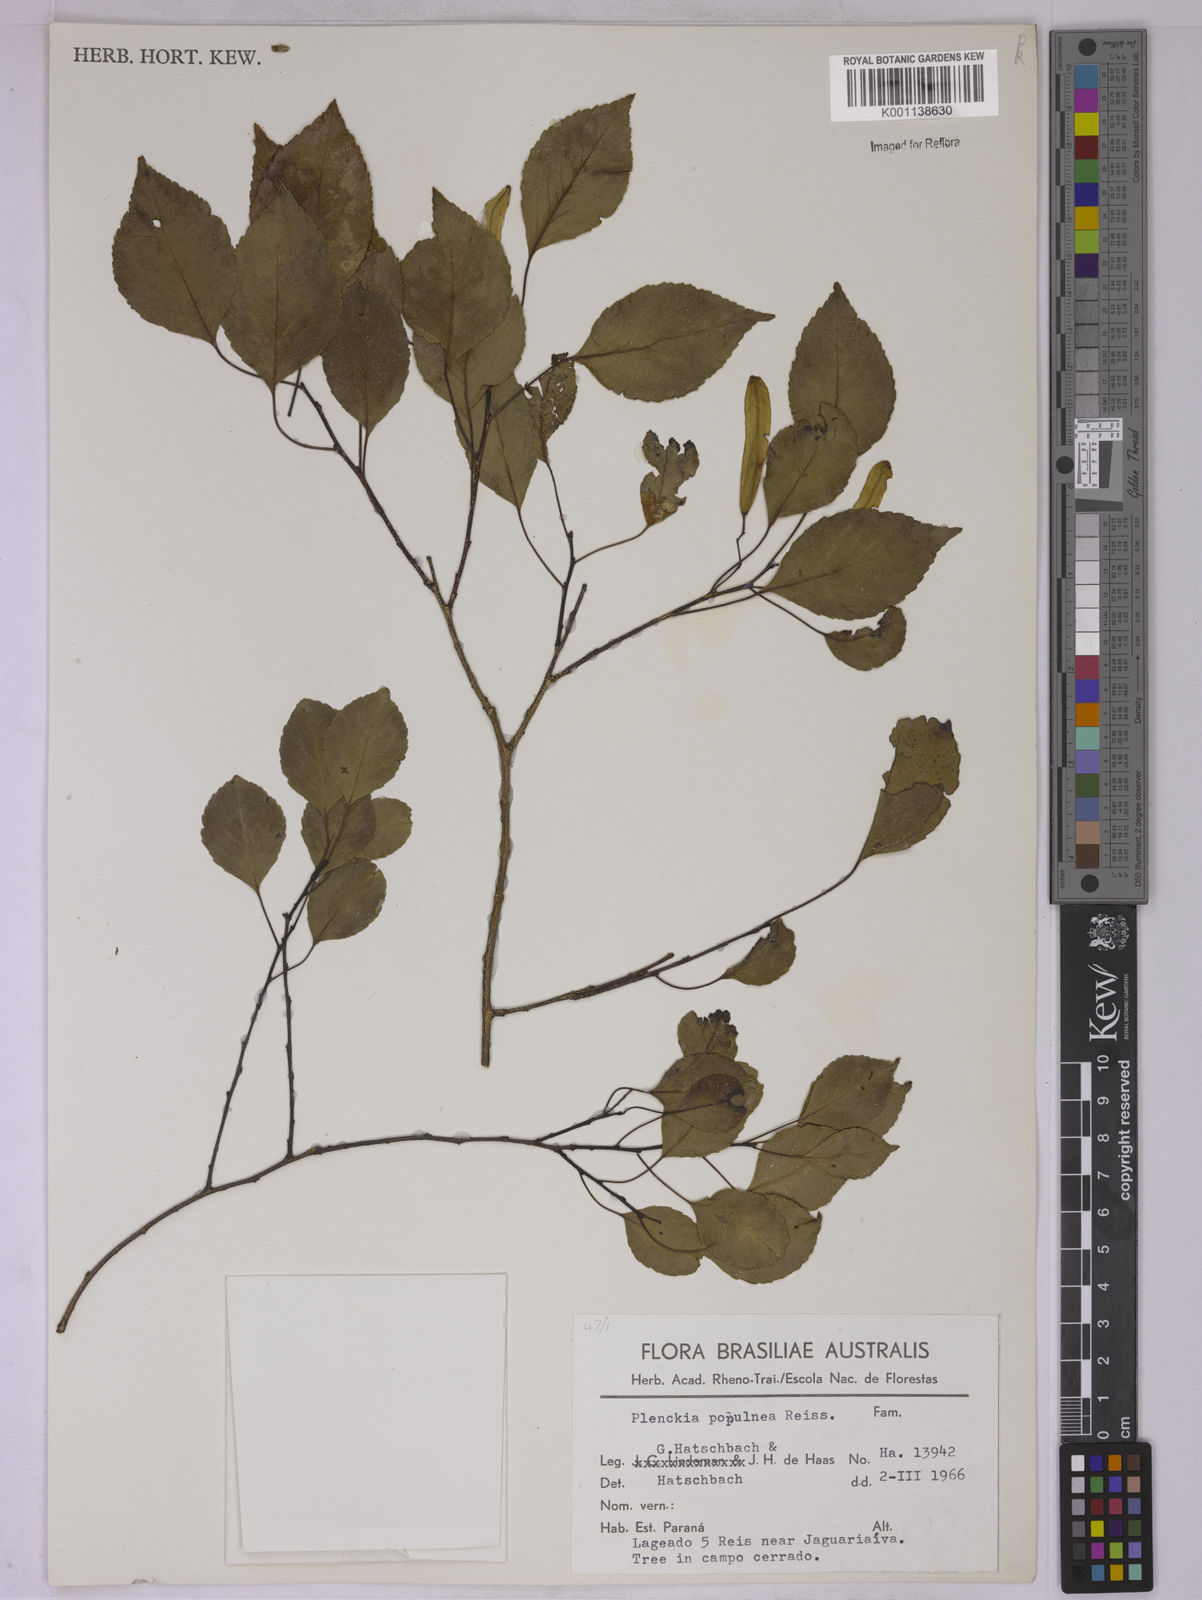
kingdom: Plantae
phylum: Tracheophyta
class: Magnoliopsida
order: Celastrales
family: Celastraceae
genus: Plenckia
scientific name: Plenckia populnea
